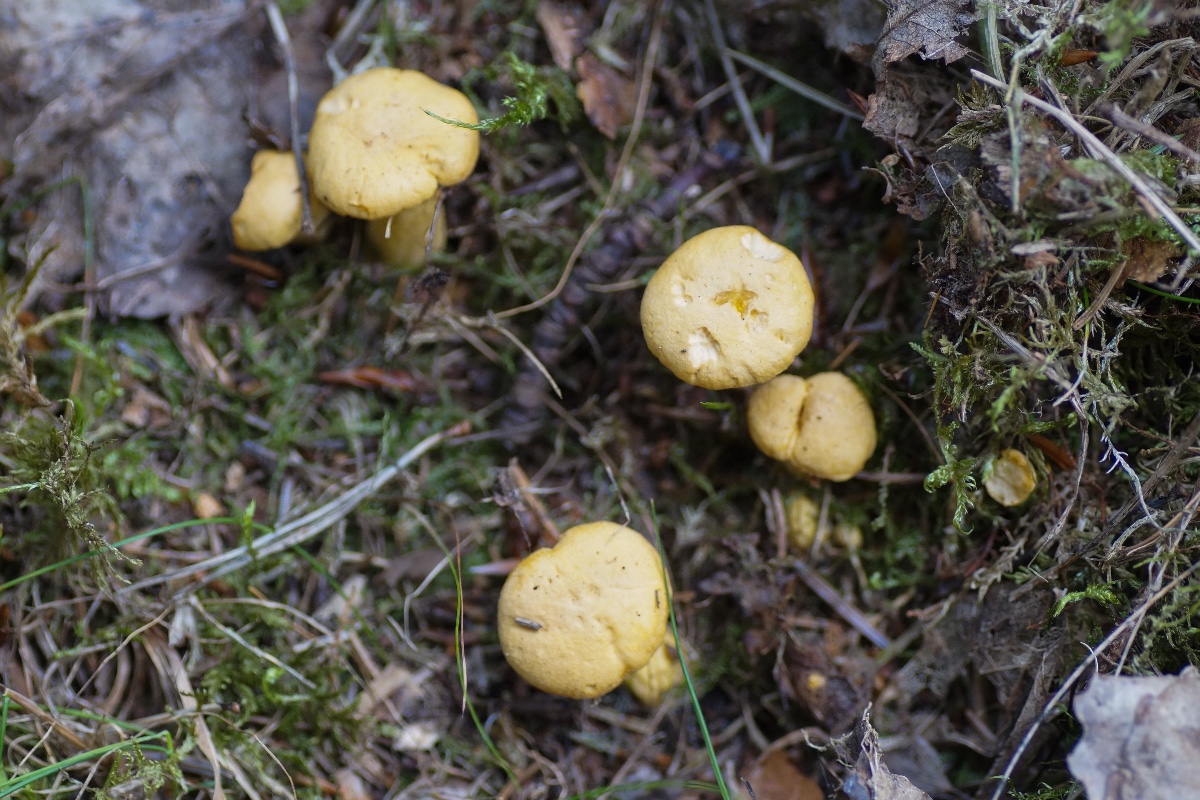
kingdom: Fungi
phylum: Basidiomycota
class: Agaricomycetes
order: Cantharellales
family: Hydnaceae
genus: Cantharellus
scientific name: Cantharellus cibarius
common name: almindelig kantarel
